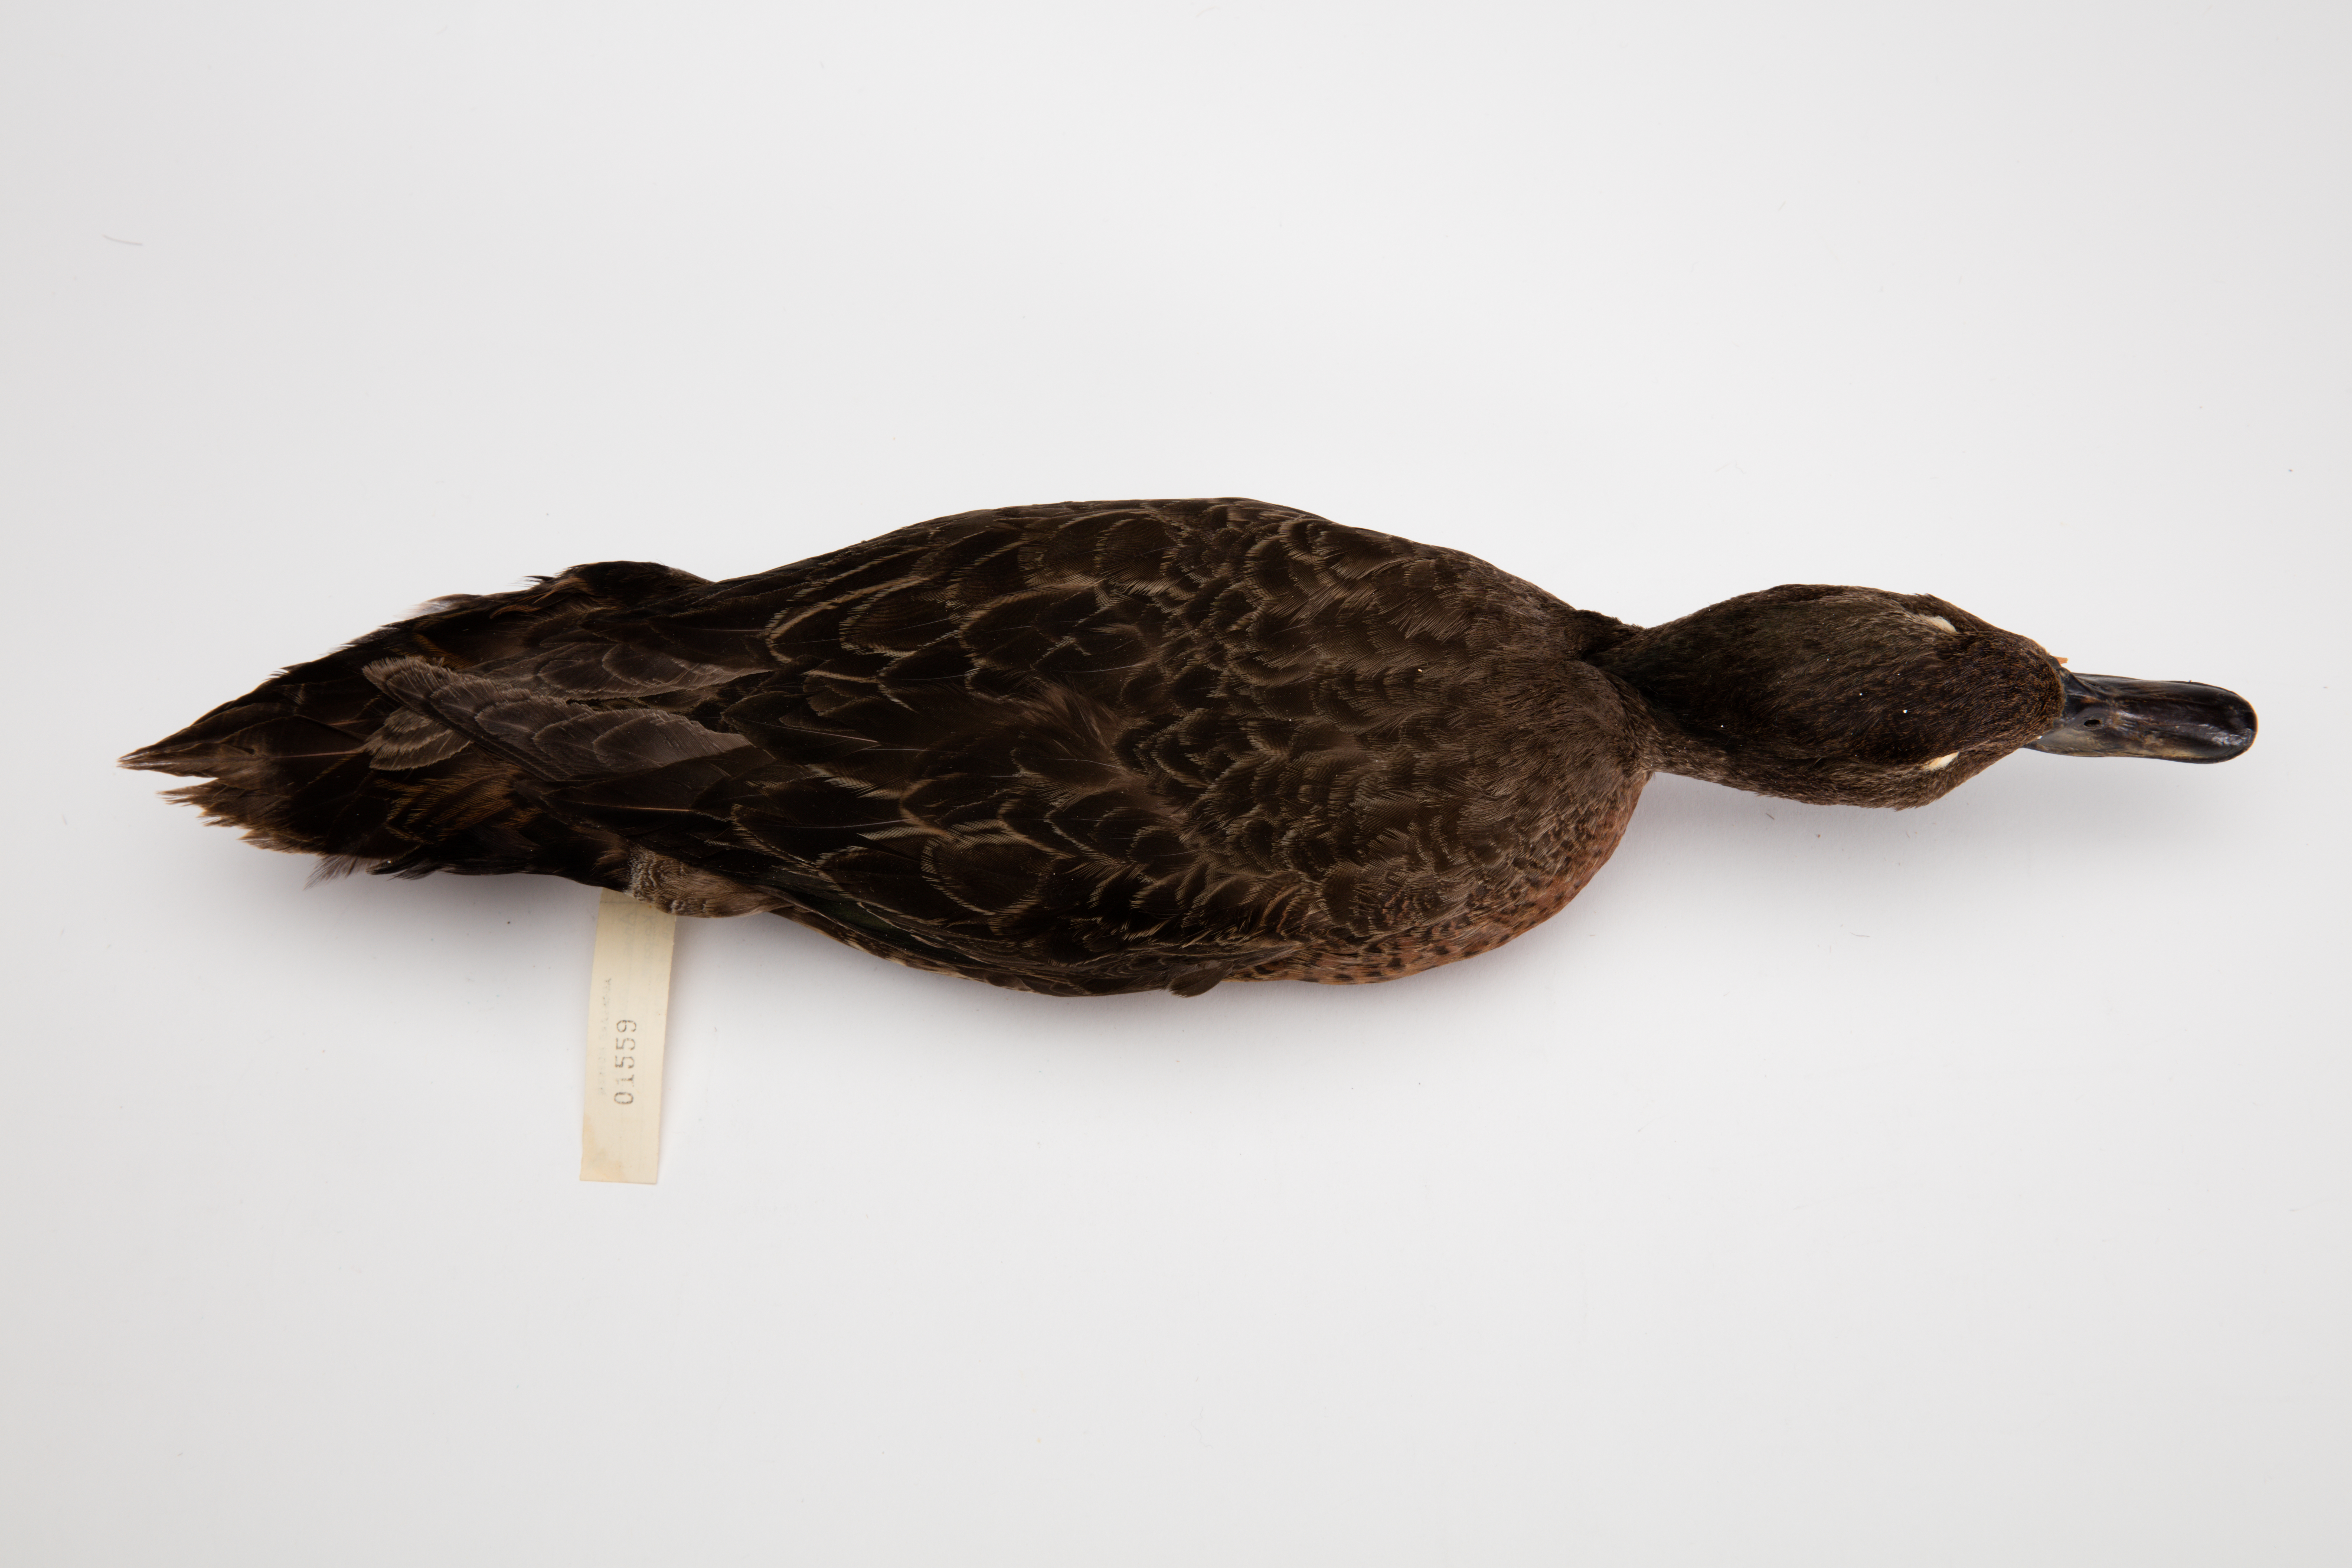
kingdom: Animalia
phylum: Chordata
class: Aves
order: Anseriformes
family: Anatidae
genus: Anas
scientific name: Anas chlorotis
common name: Brown teal
